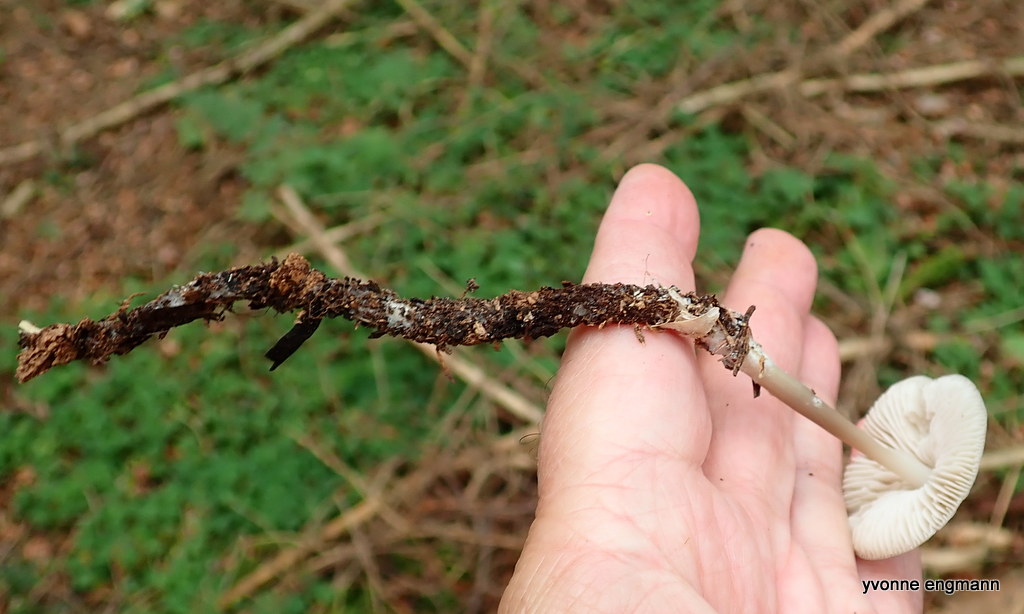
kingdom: Fungi
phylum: Basidiomycota
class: Agaricomycetes
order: Agaricales
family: Physalacriaceae
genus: Hymenopellis
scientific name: Hymenopellis radicata
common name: almindelig pælerodshat
